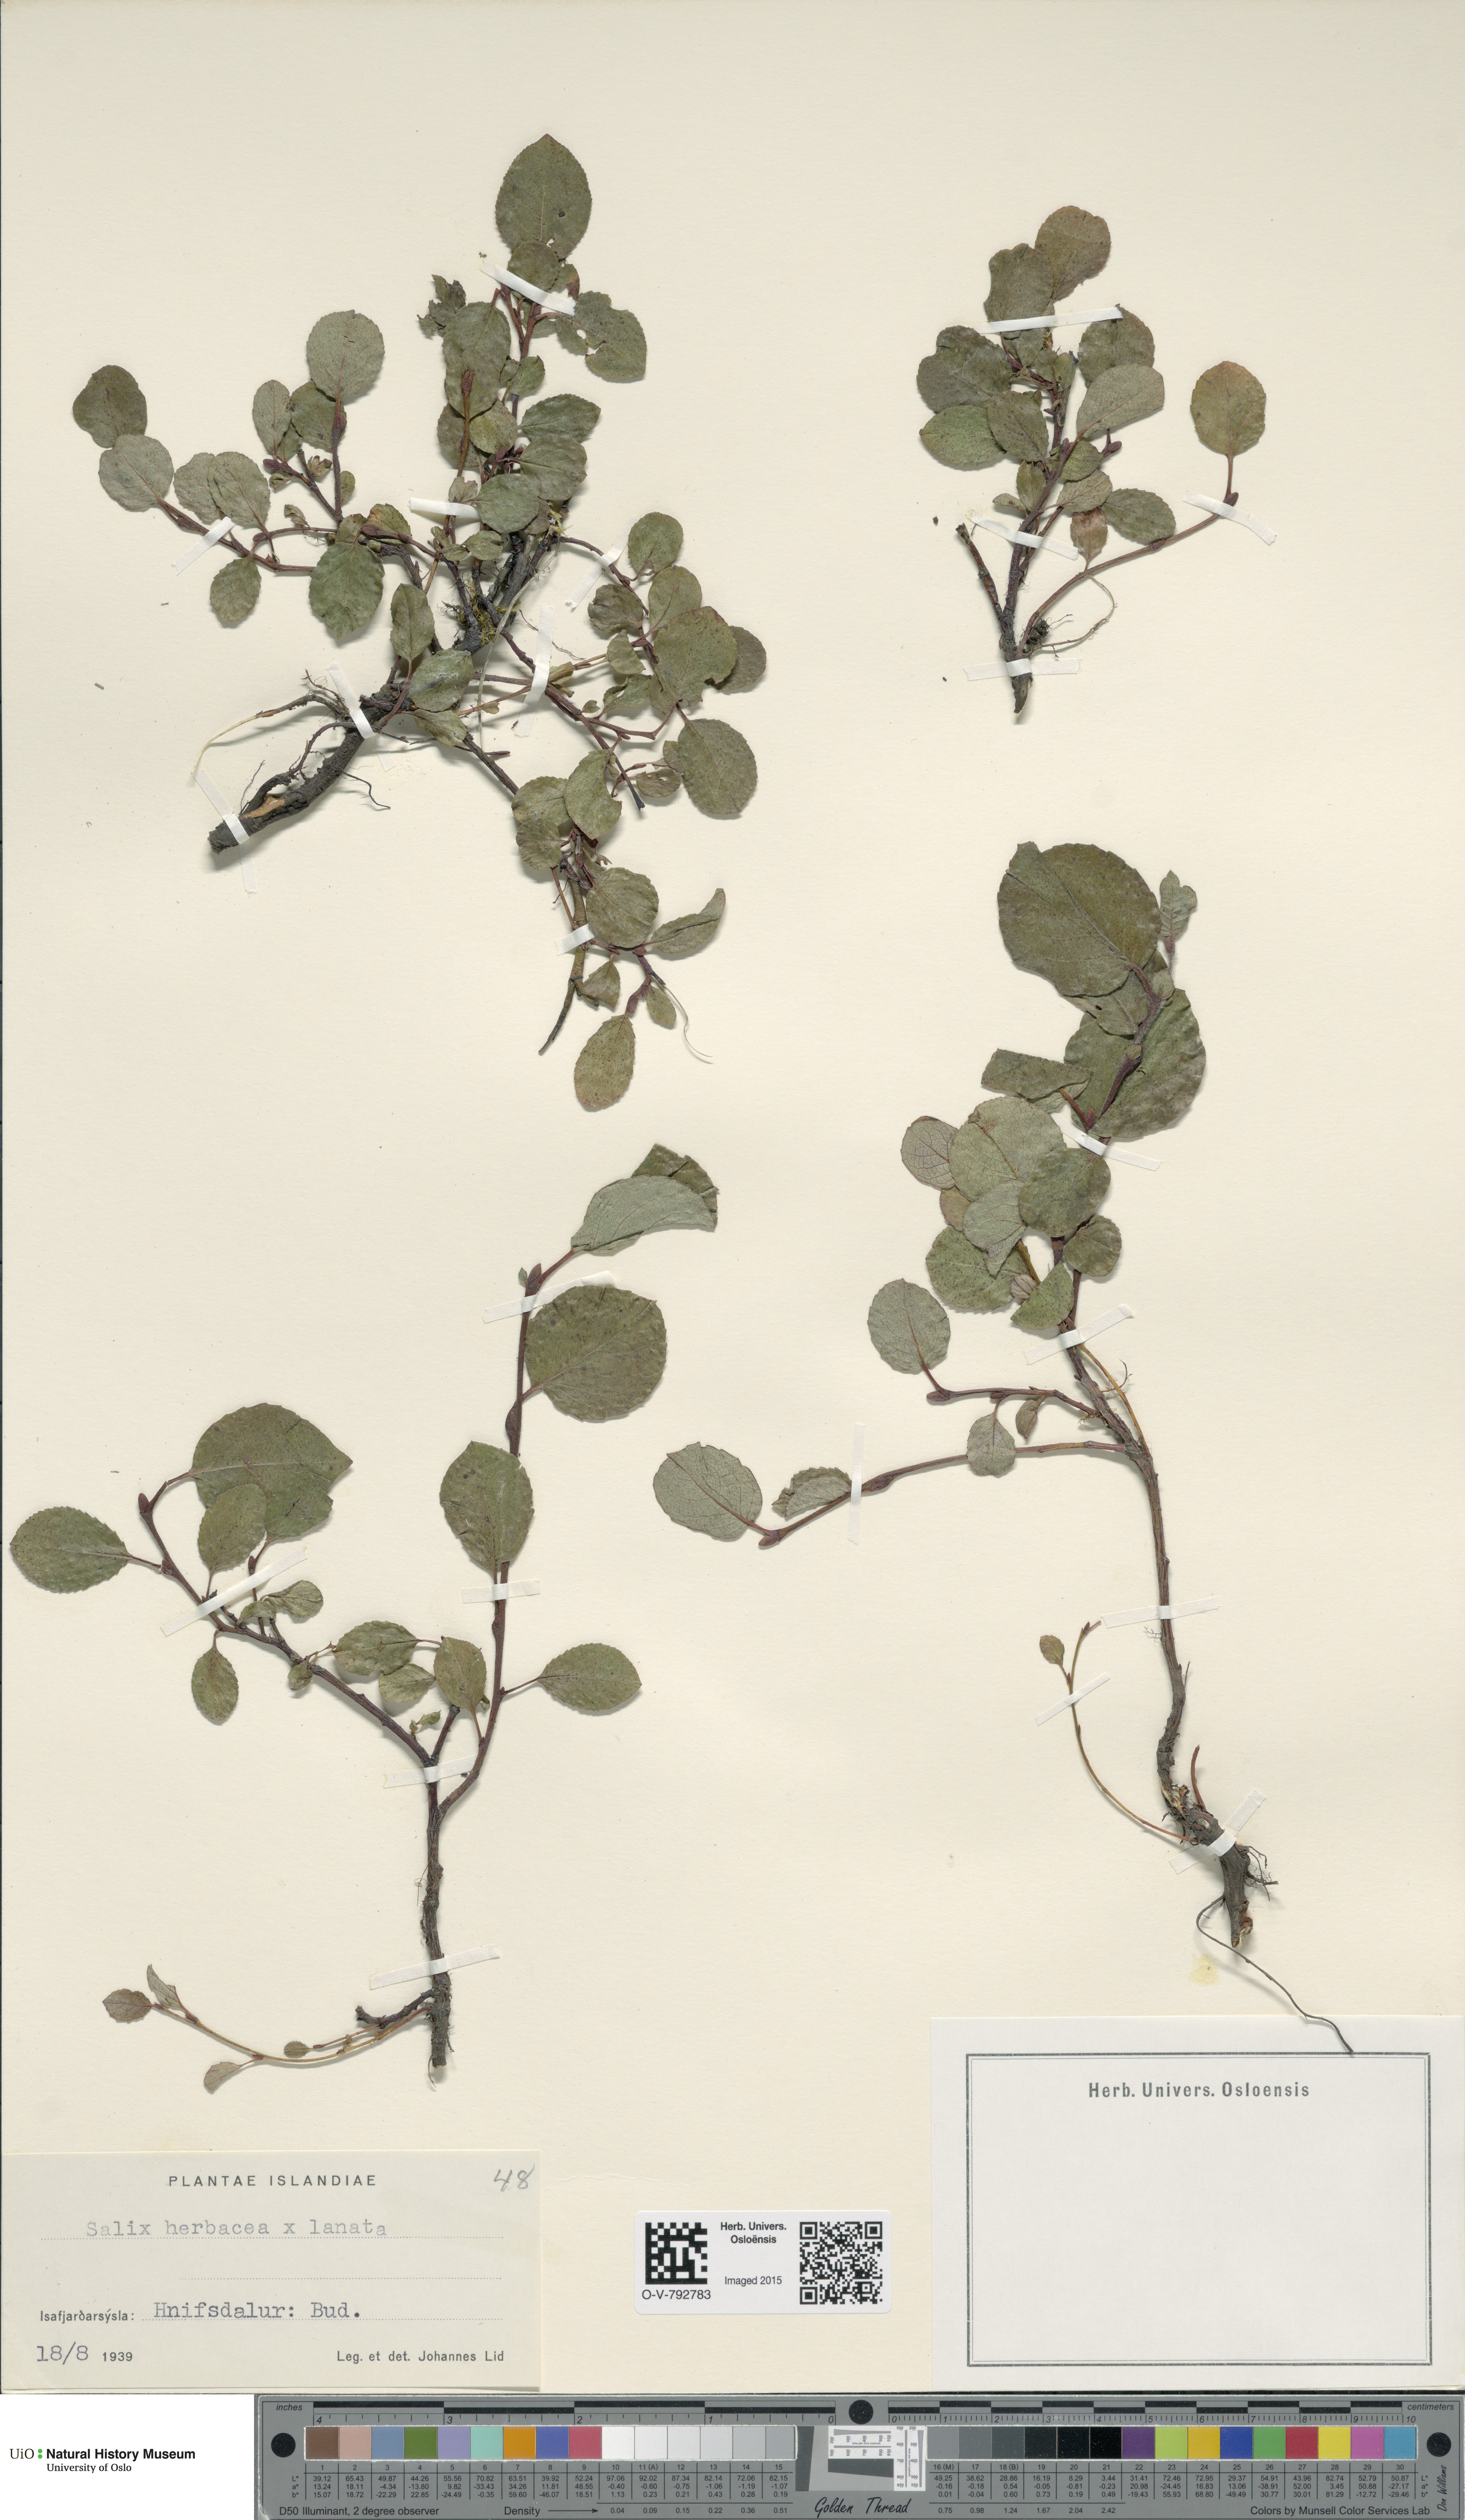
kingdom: Plantae
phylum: Tracheophyta
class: Magnoliopsida
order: Malpighiales
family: Salicaceae
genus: Salix
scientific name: Salix
